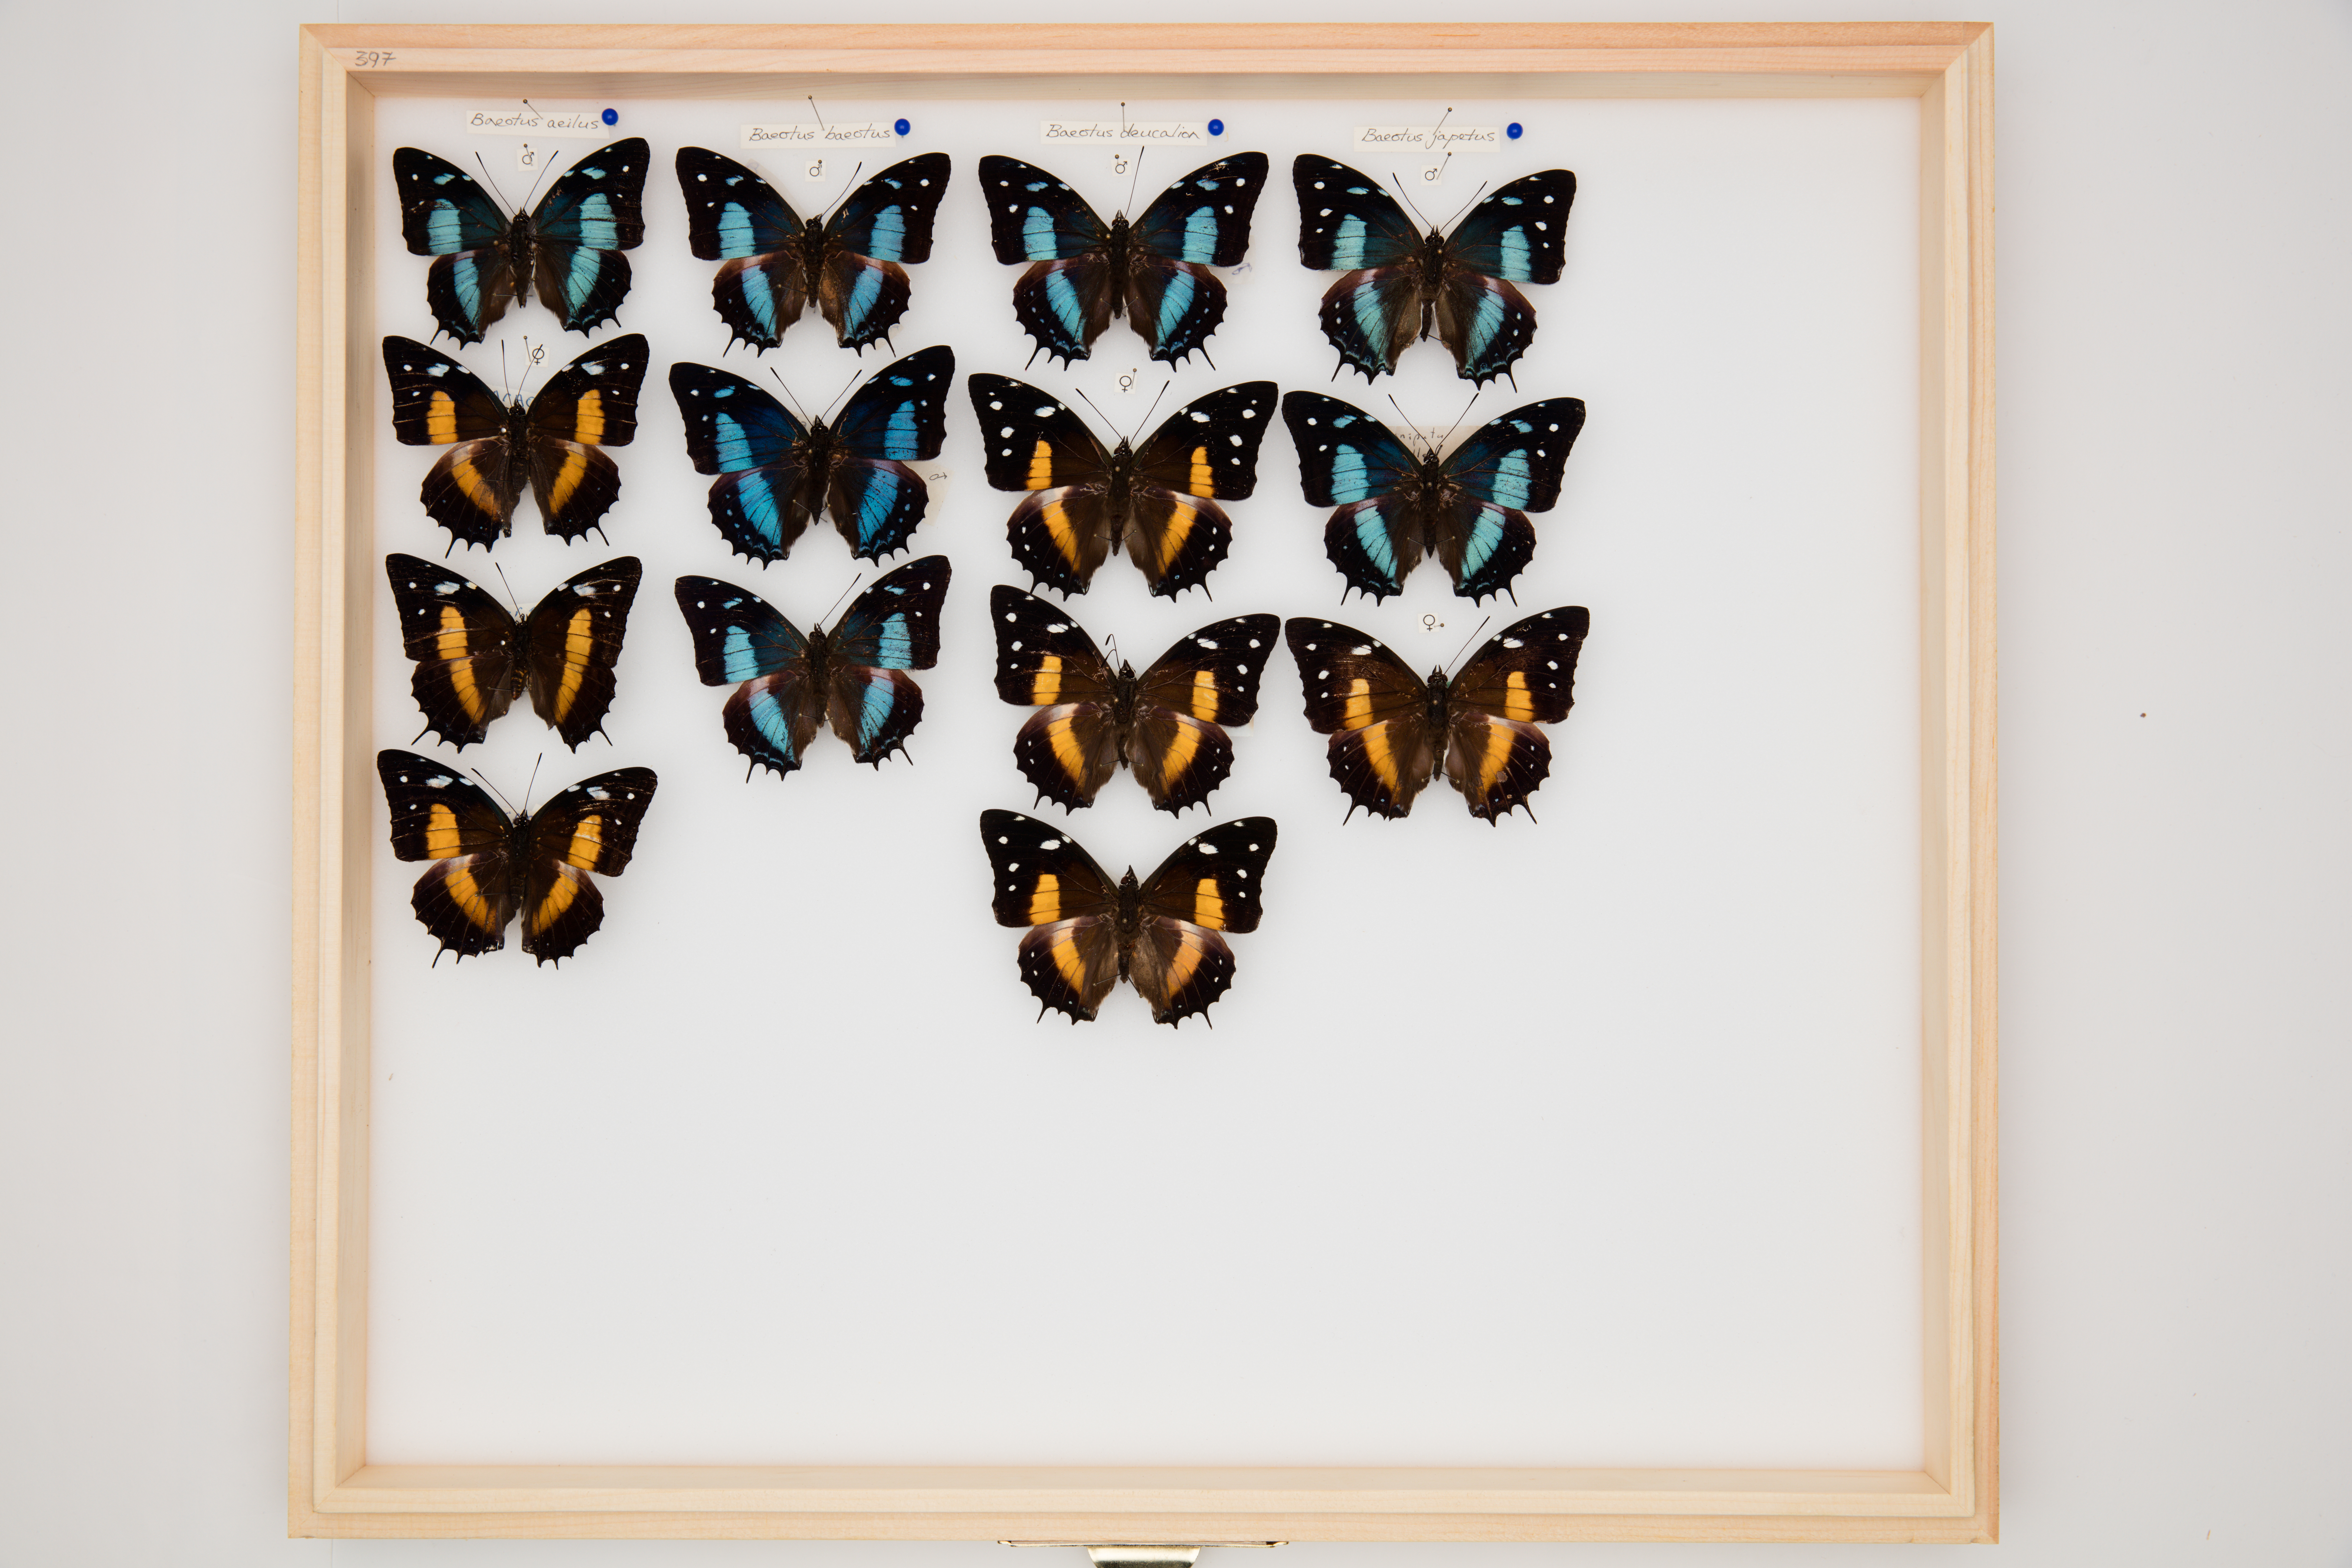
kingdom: Animalia
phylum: Arthropoda
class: Insecta
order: Lepidoptera
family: Nymphalidae
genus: Baeotus
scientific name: Baeotus deucalion
